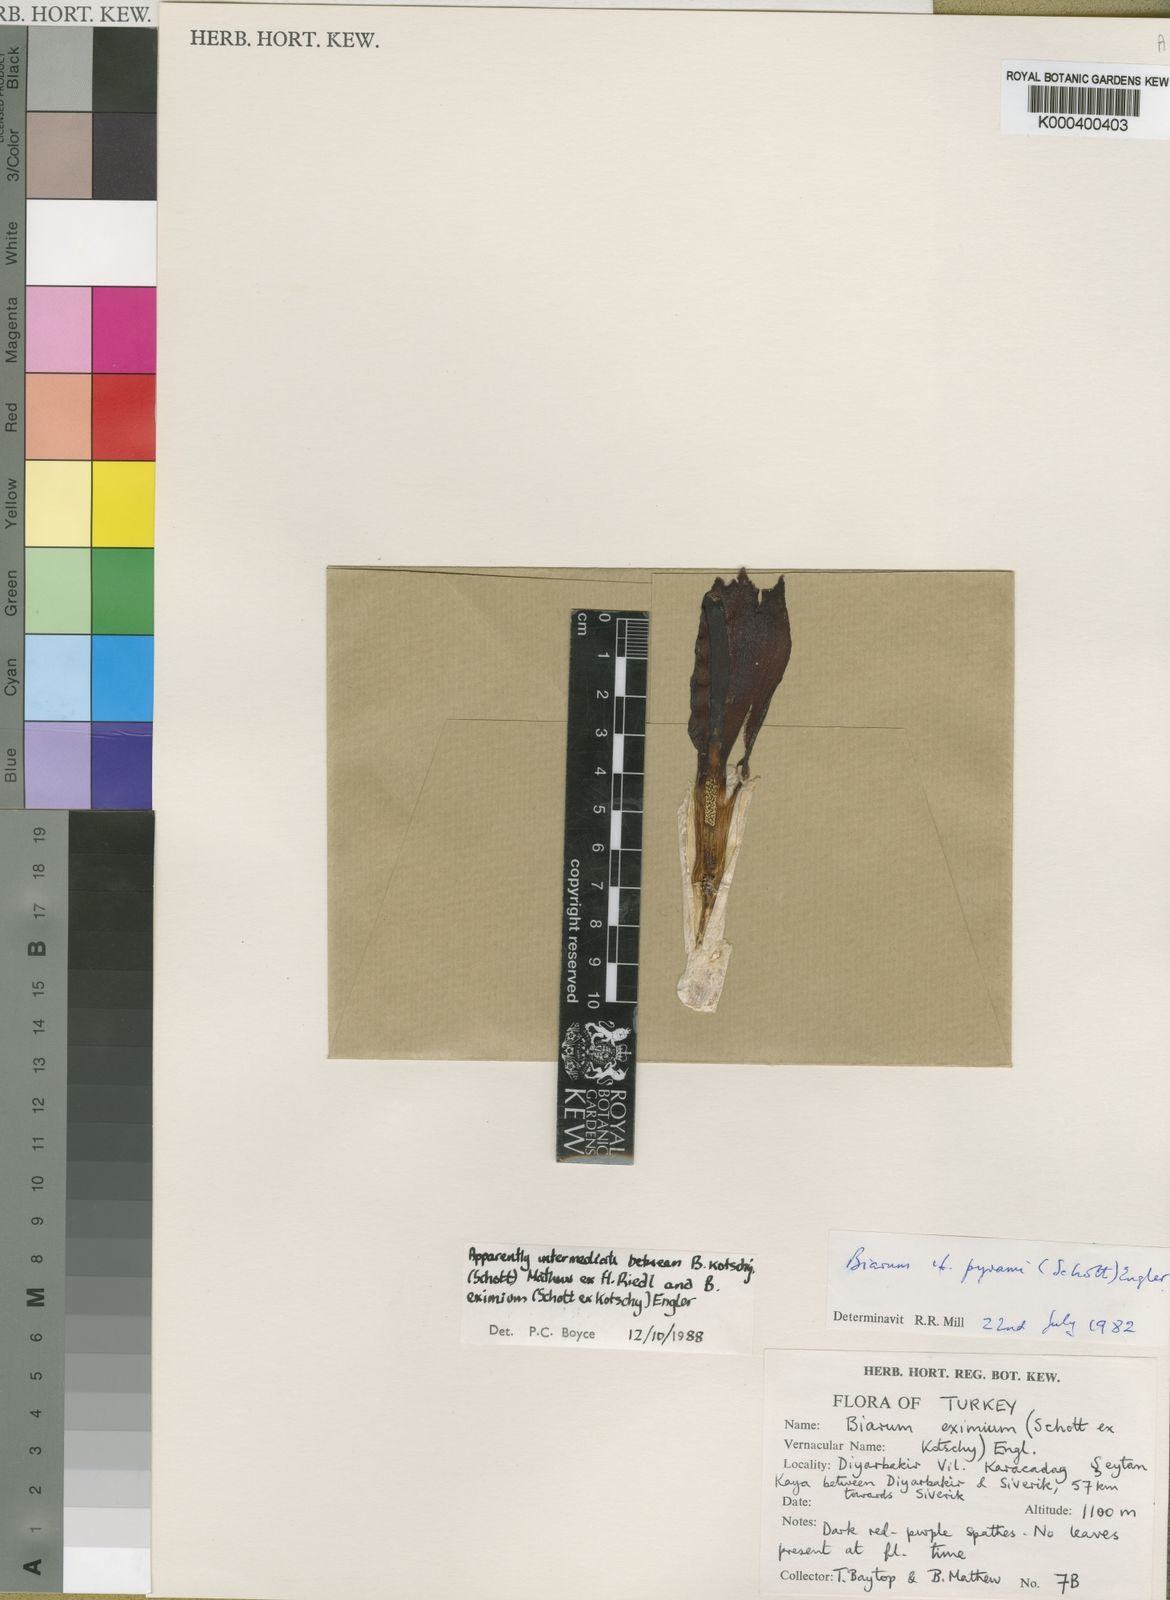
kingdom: Plantae
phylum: Tracheophyta
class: Liliopsida
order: Alismatales
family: Araceae
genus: Biarum
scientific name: Biarum kotschyi
